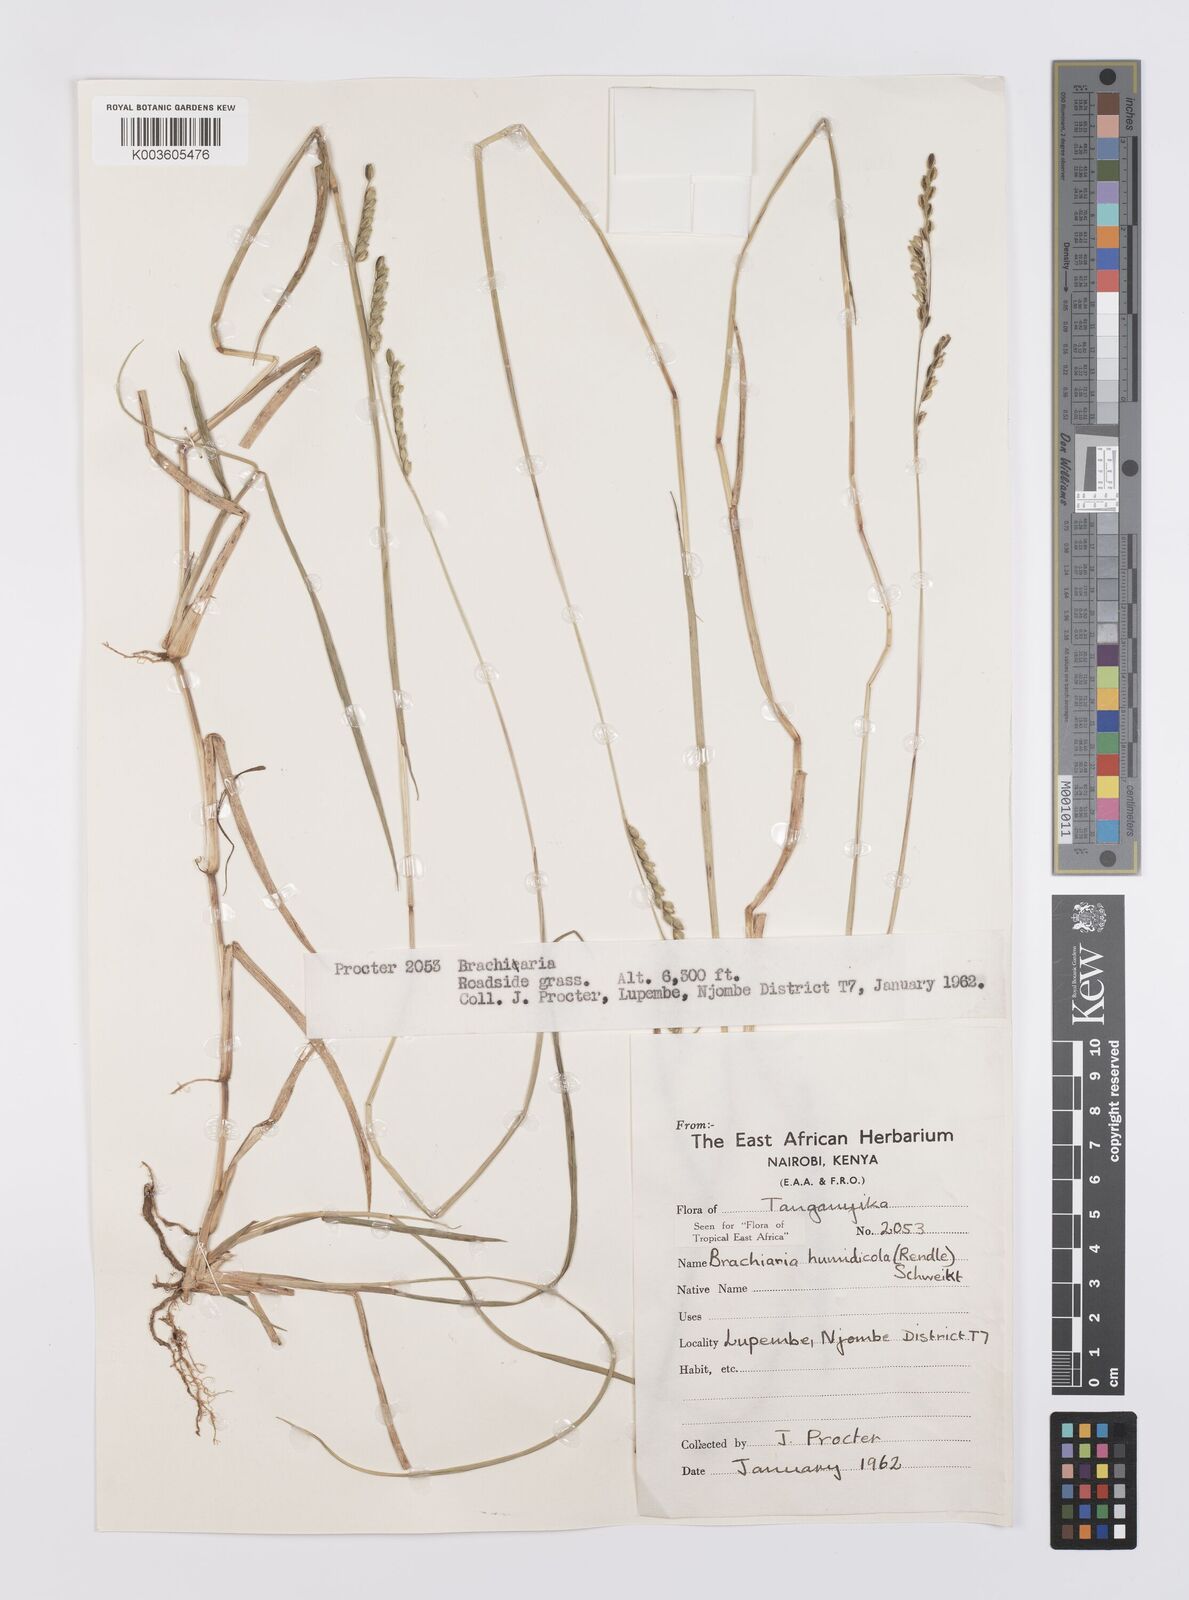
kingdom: Plantae
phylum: Tracheophyta
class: Liliopsida
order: Poales
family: Poaceae
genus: Urochloa
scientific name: Urochloa dictyoneura
